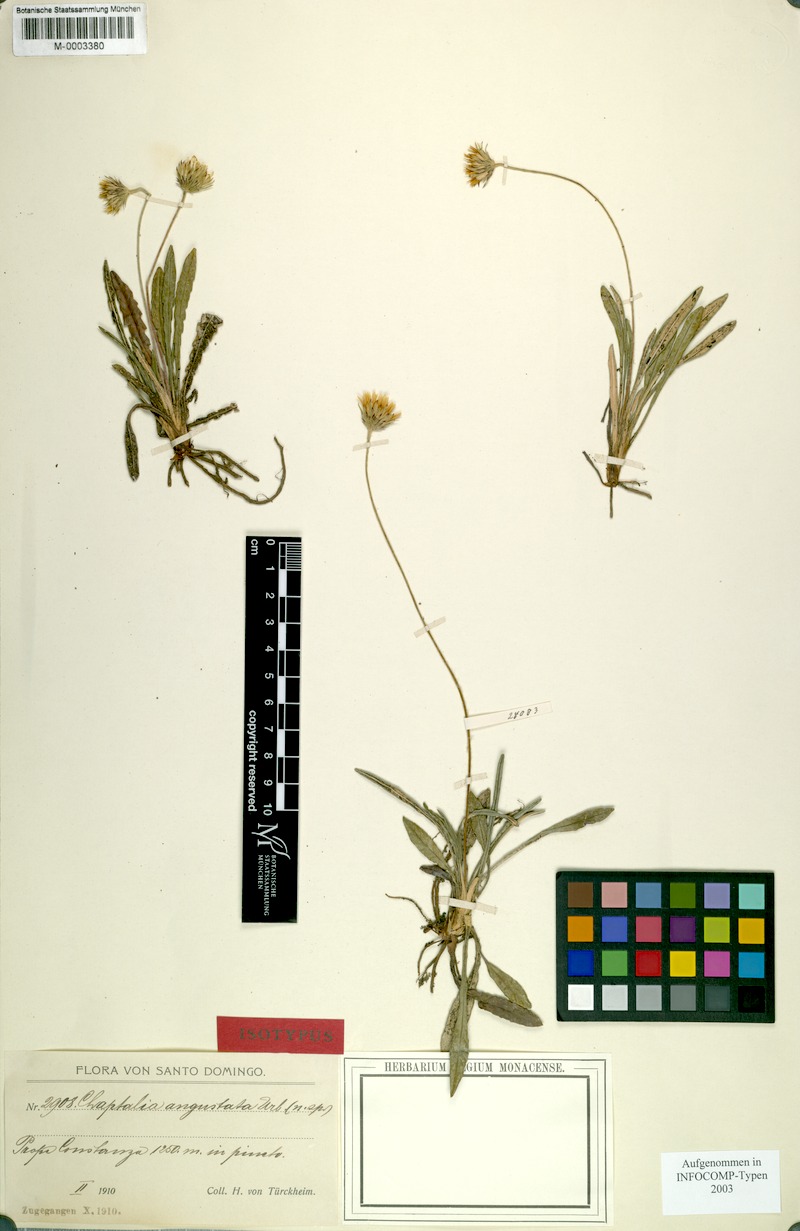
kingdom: Plantae
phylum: Tracheophyta
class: Magnoliopsida
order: Asterales
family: Asteraceae
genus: Chaptalia
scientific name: Chaptalia angustata
